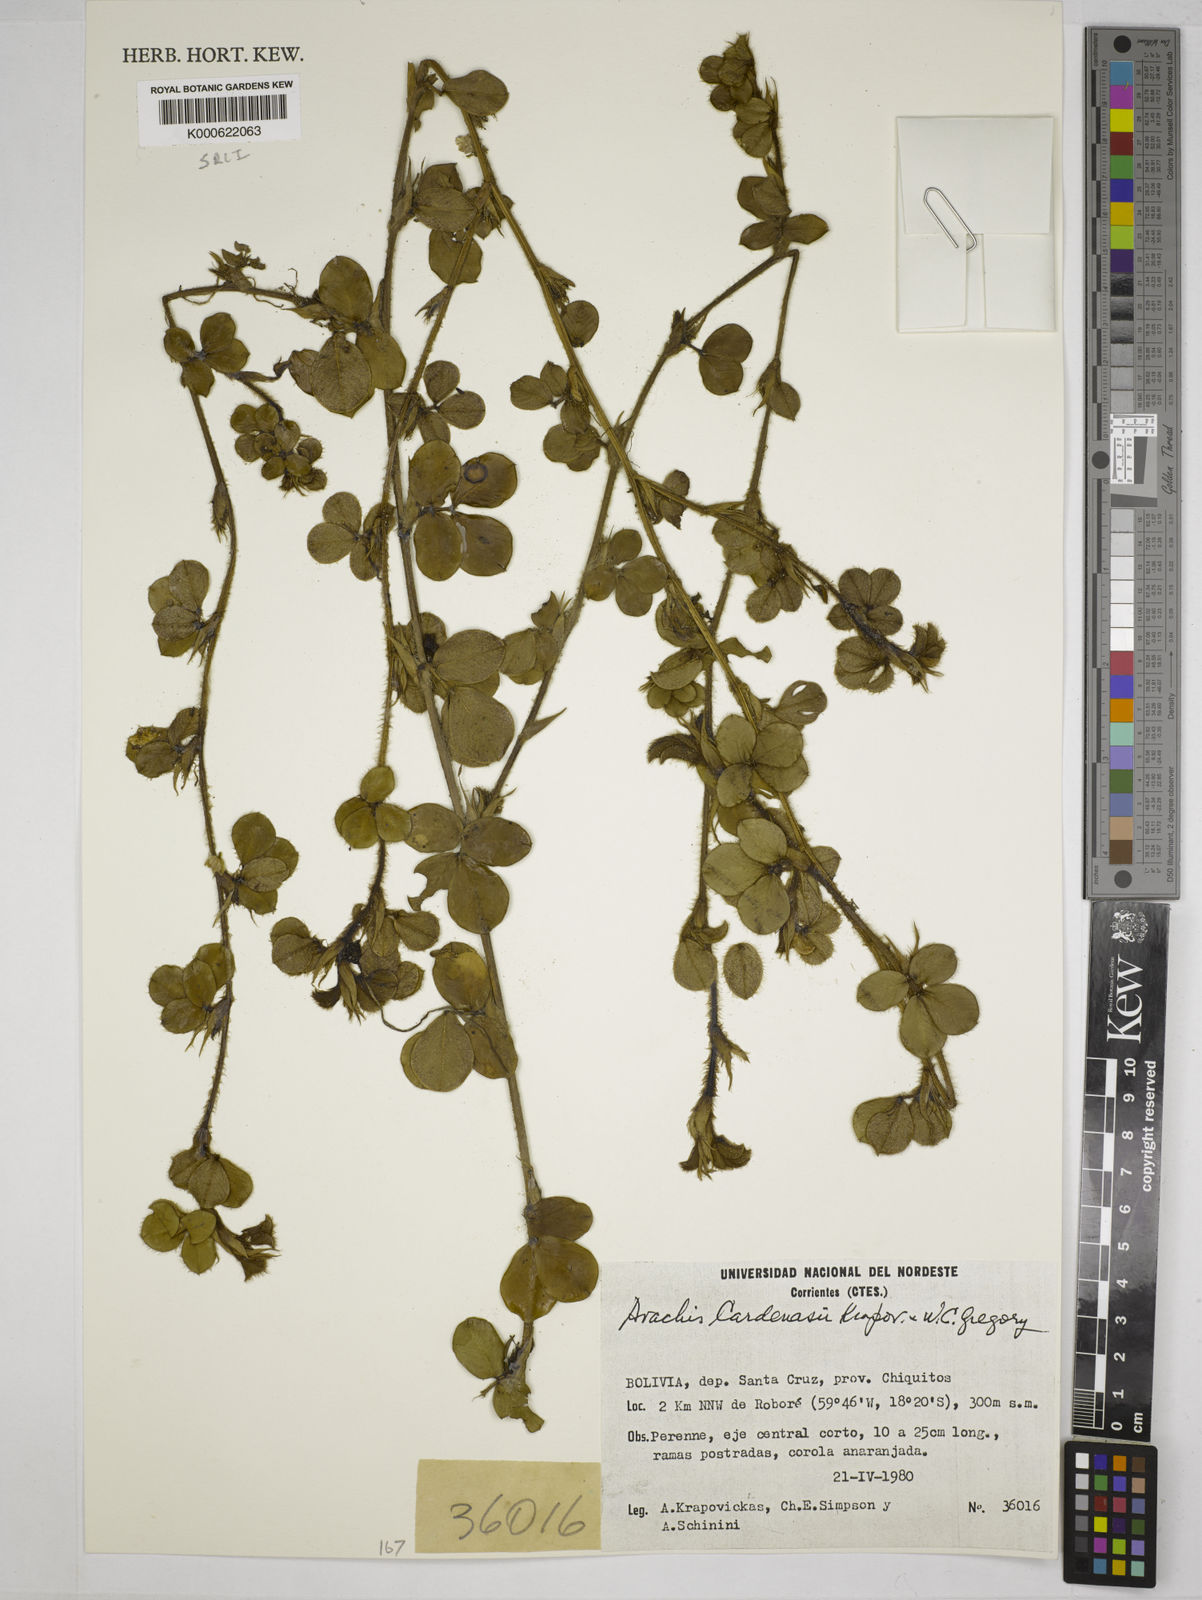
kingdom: Plantae
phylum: Tracheophyta
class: Magnoliopsida
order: Fabales
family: Fabaceae
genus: Arachis
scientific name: Arachis cardenasii
